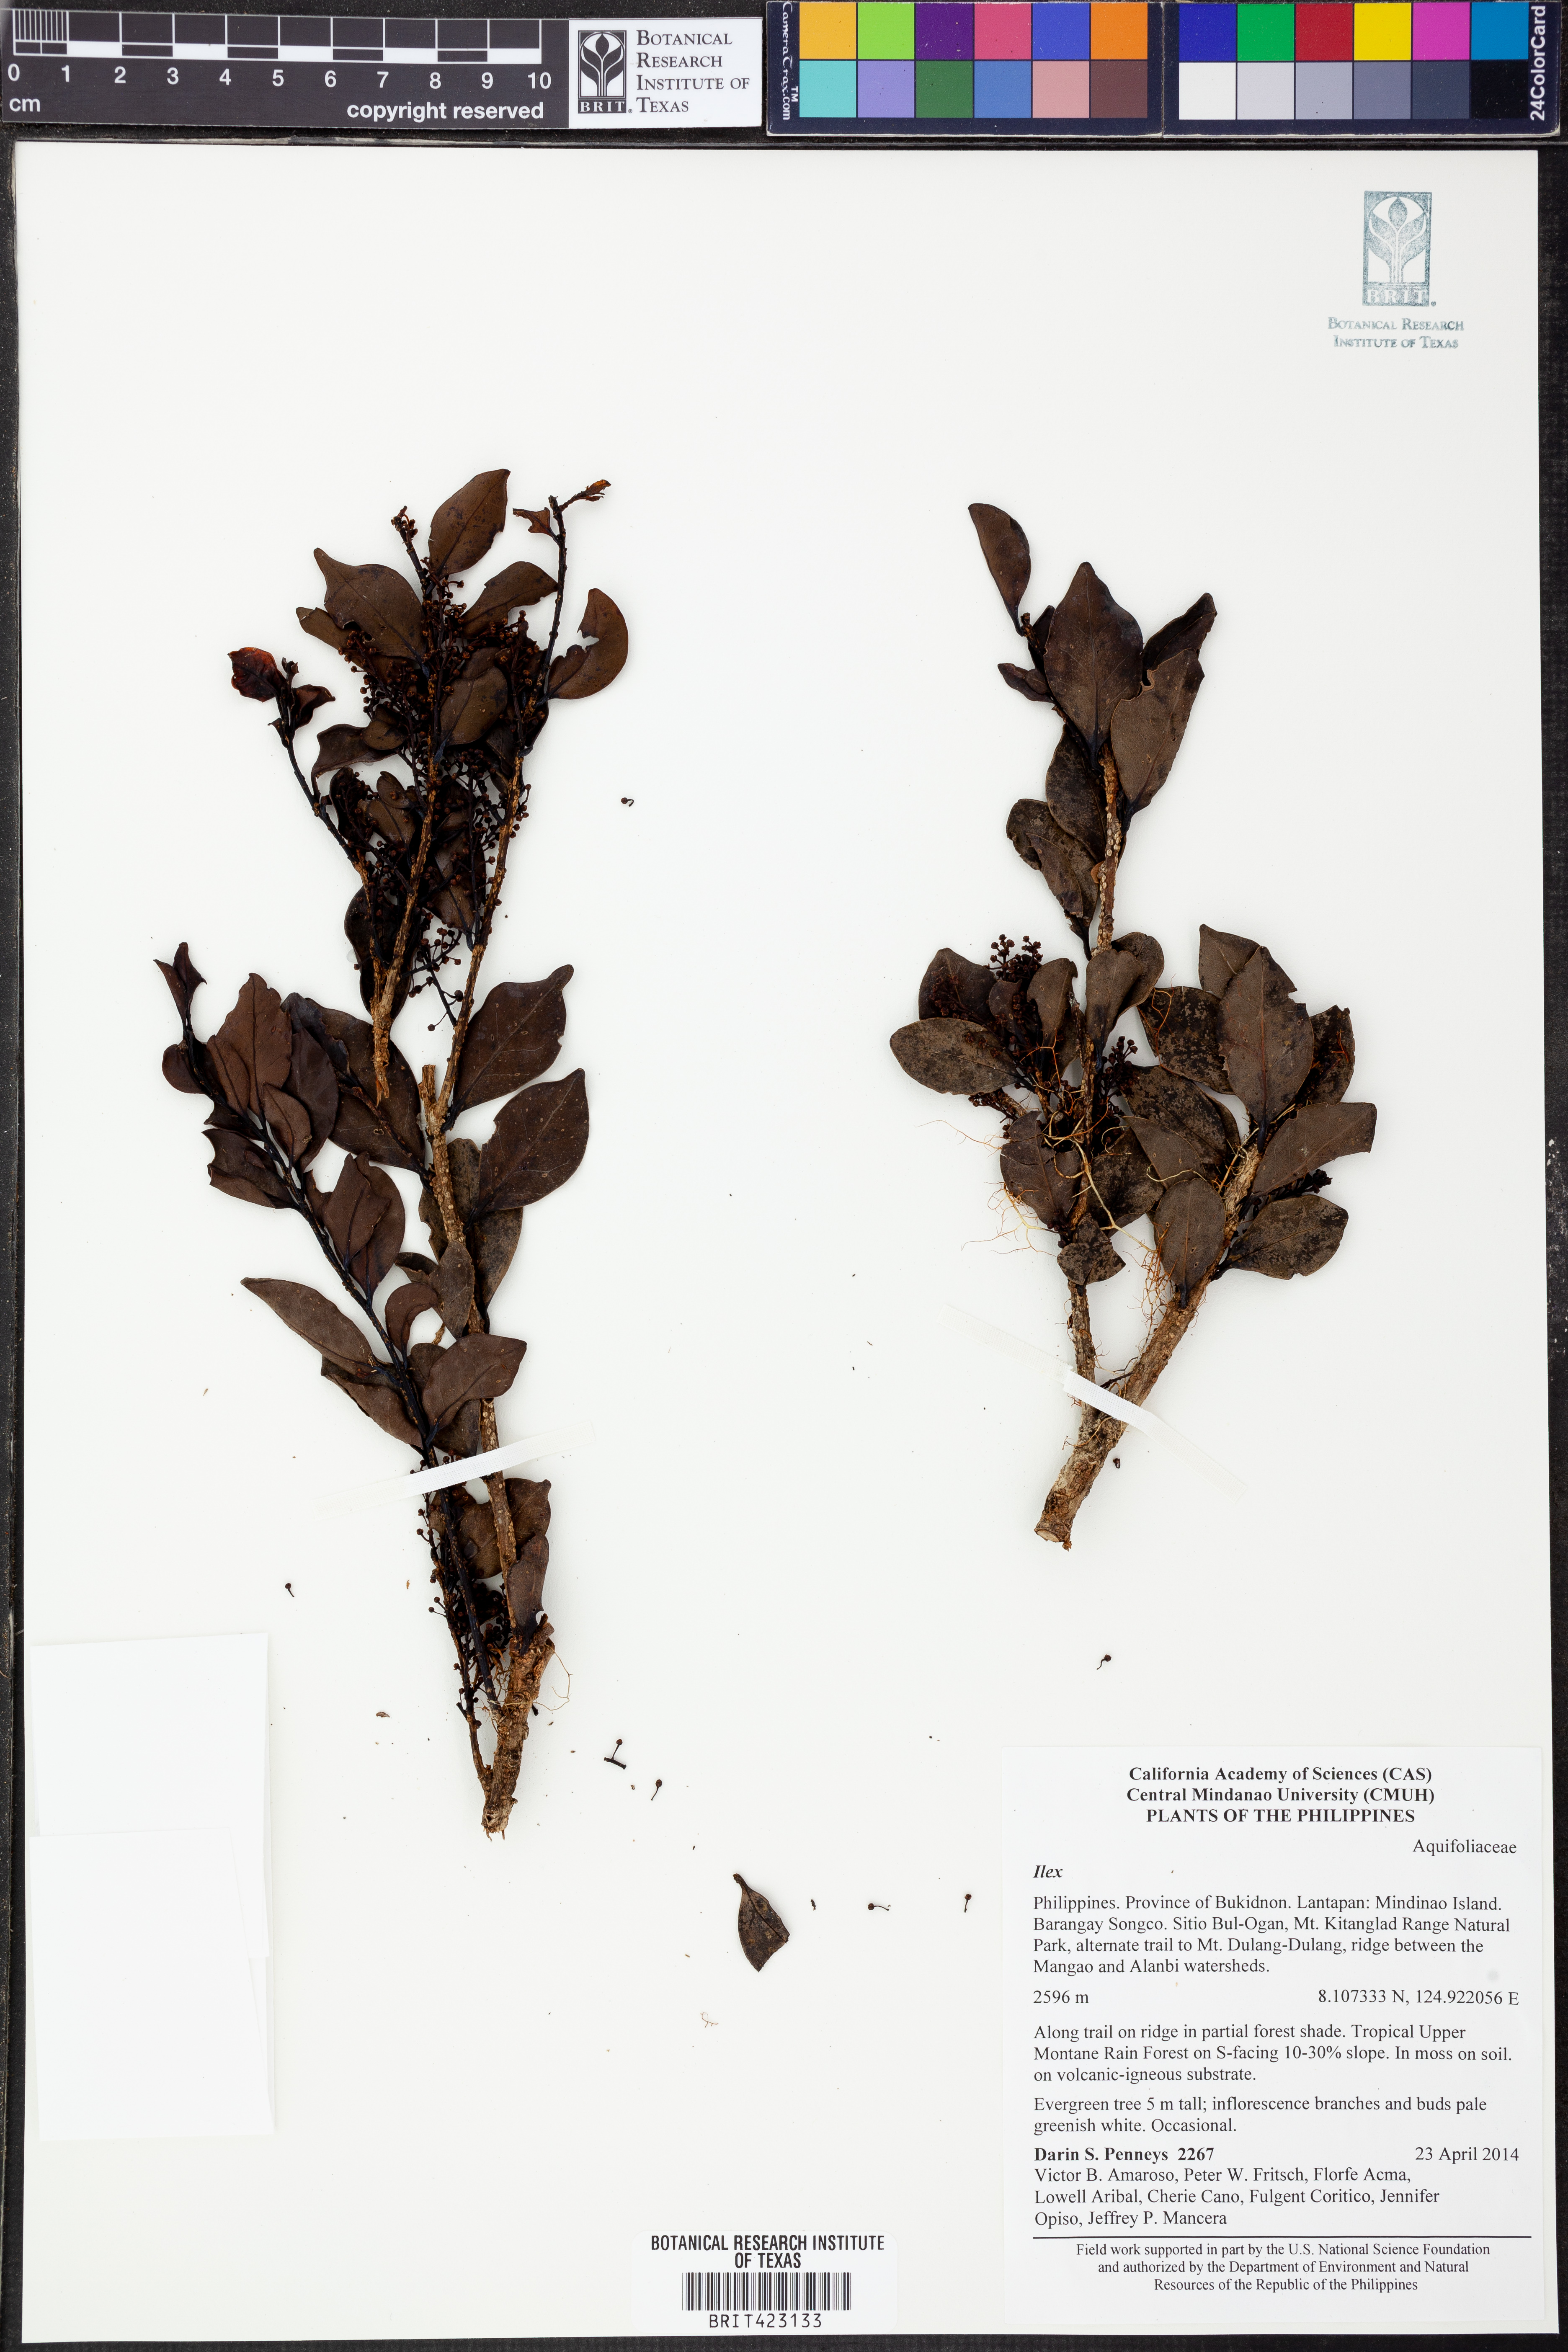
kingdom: Plantae
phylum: Tracheophyta
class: Magnoliopsida
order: Aquifoliales
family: Aquifoliaceae
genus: Ilex
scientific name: Ilex
